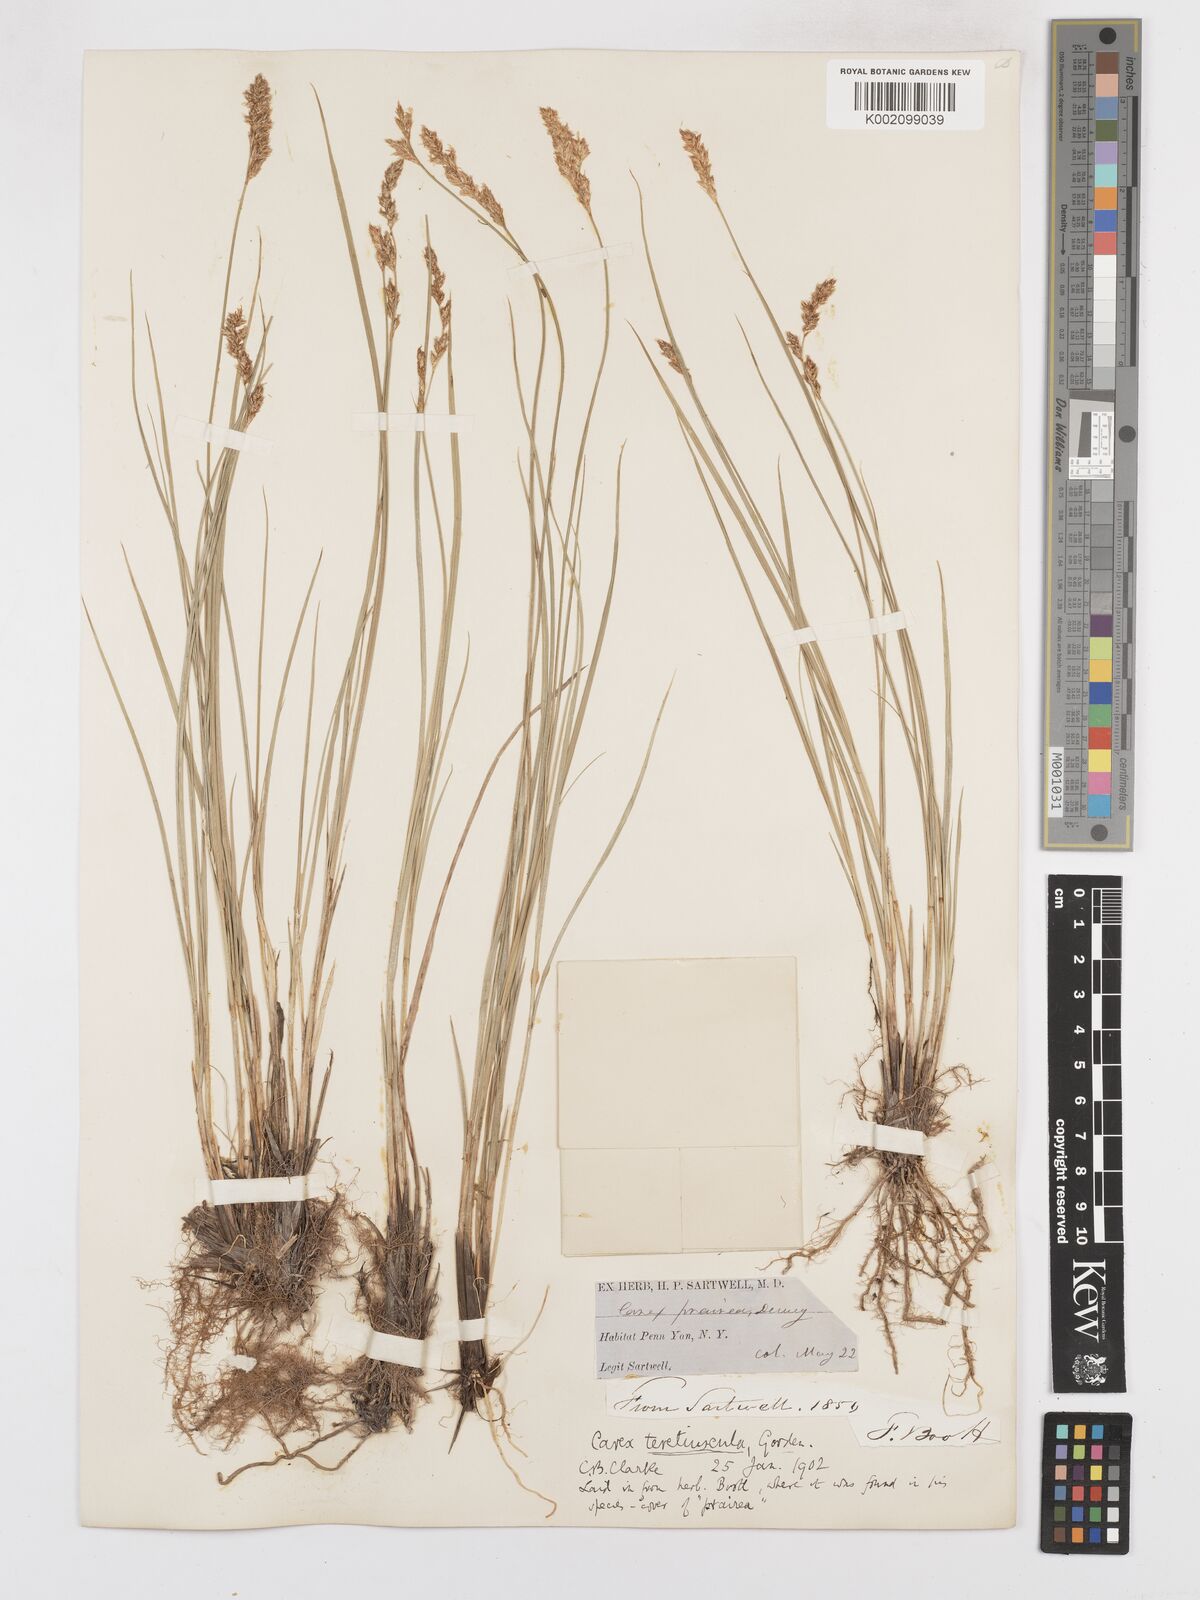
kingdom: Plantae
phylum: Tracheophyta
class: Liliopsida
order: Poales
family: Cyperaceae
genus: Carex
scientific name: Carex diandra
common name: Lesser tussock-sedge
